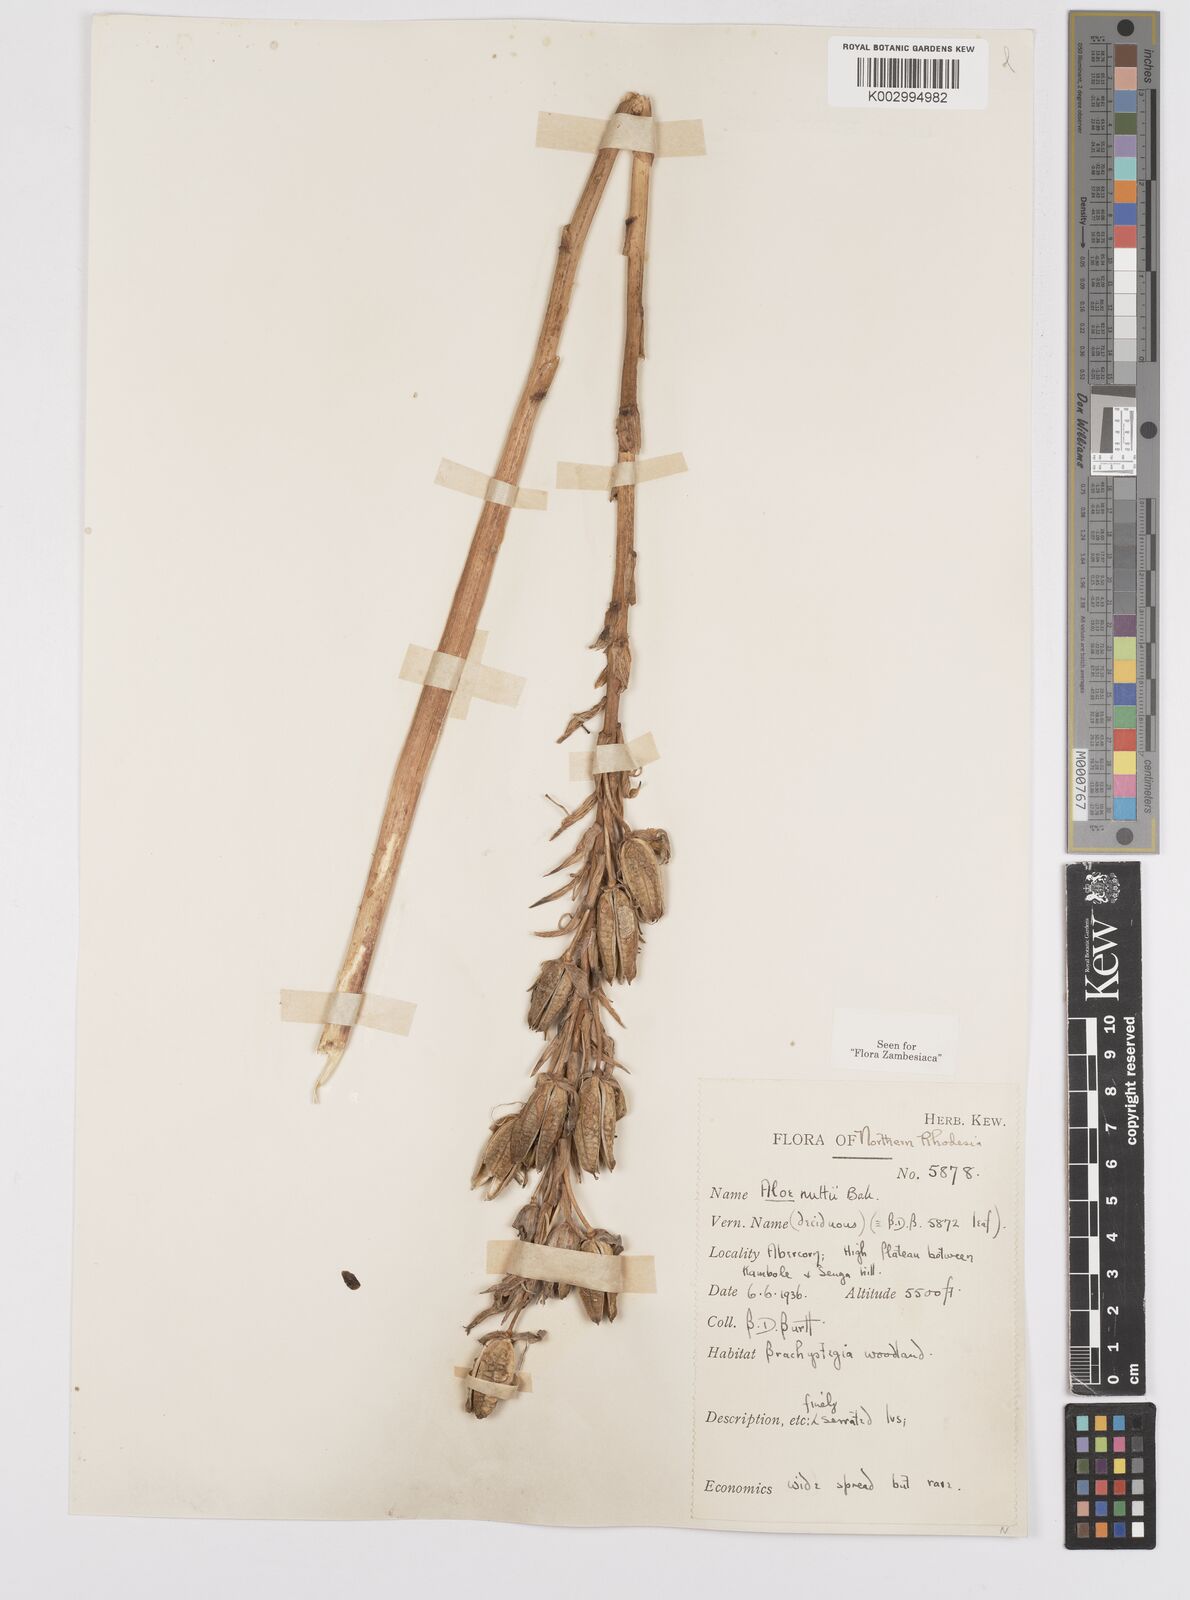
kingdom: Plantae
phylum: Tracheophyta
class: Liliopsida
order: Asparagales
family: Asphodelaceae
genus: Aloe
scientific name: Aloe nuttii
